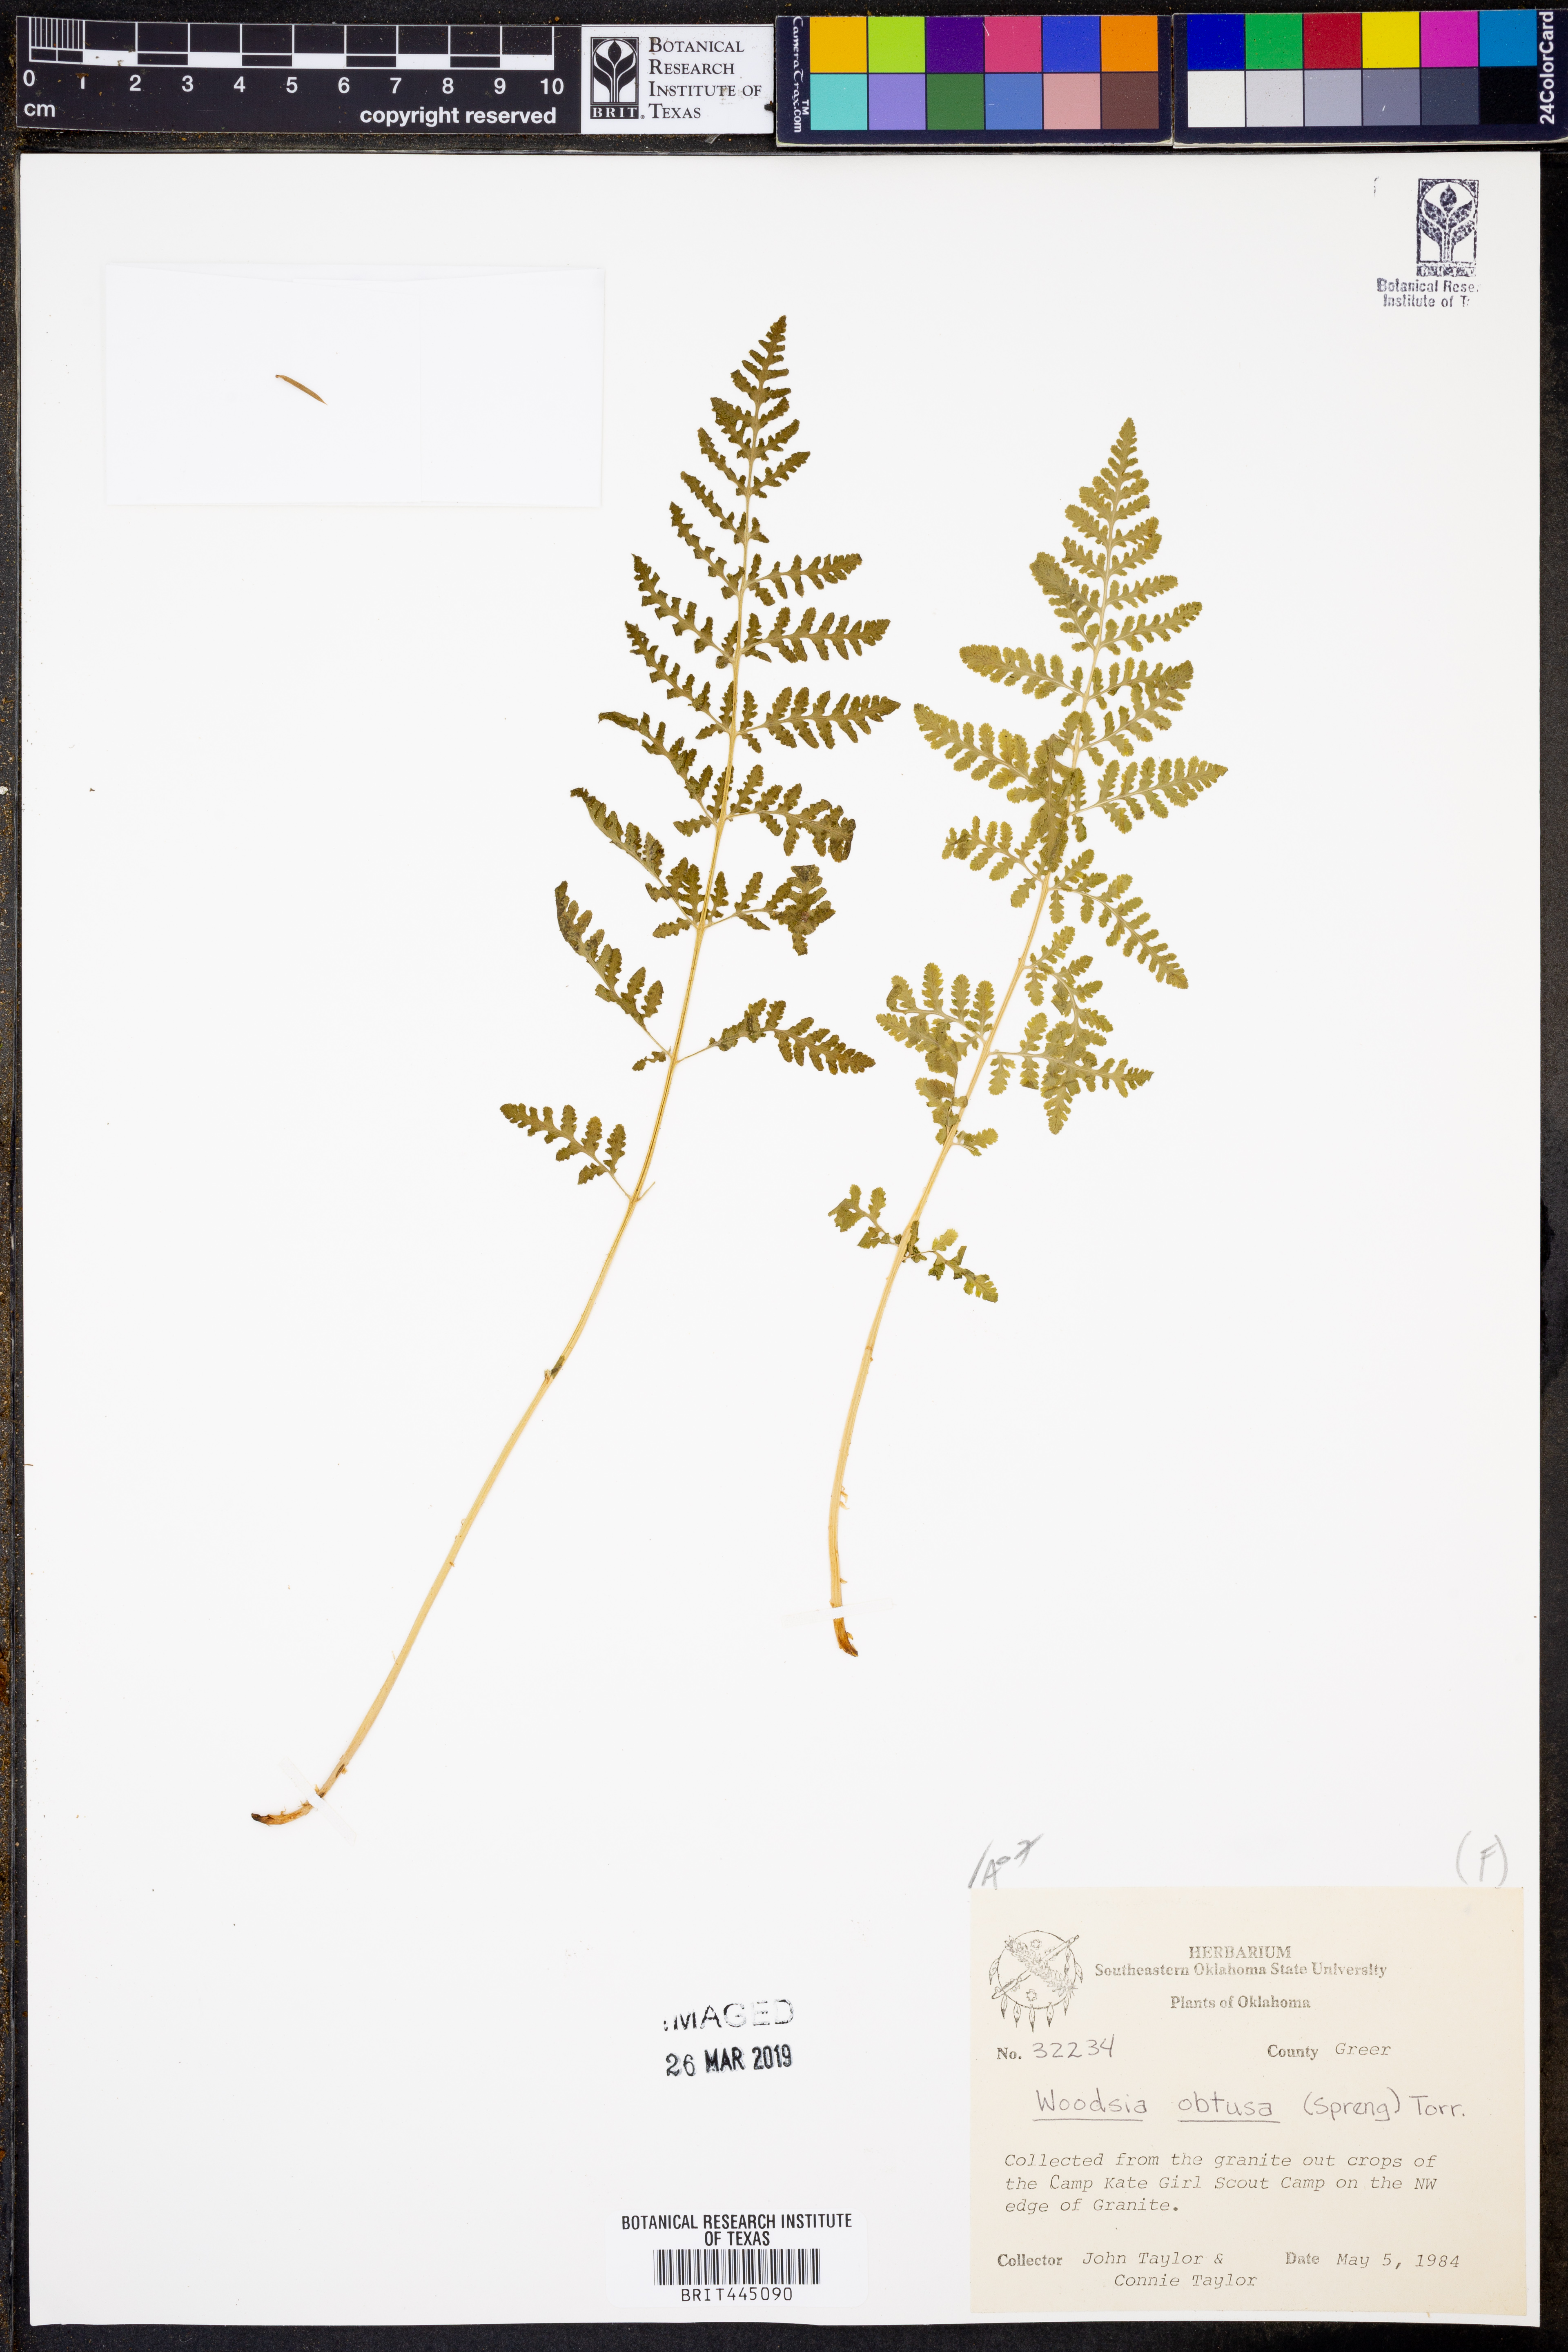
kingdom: Plantae
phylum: Tracheophyta
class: Polypodiopsida
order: Polypodiales
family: Woodsiaceae
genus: Physematium
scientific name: Physematium obtusum
